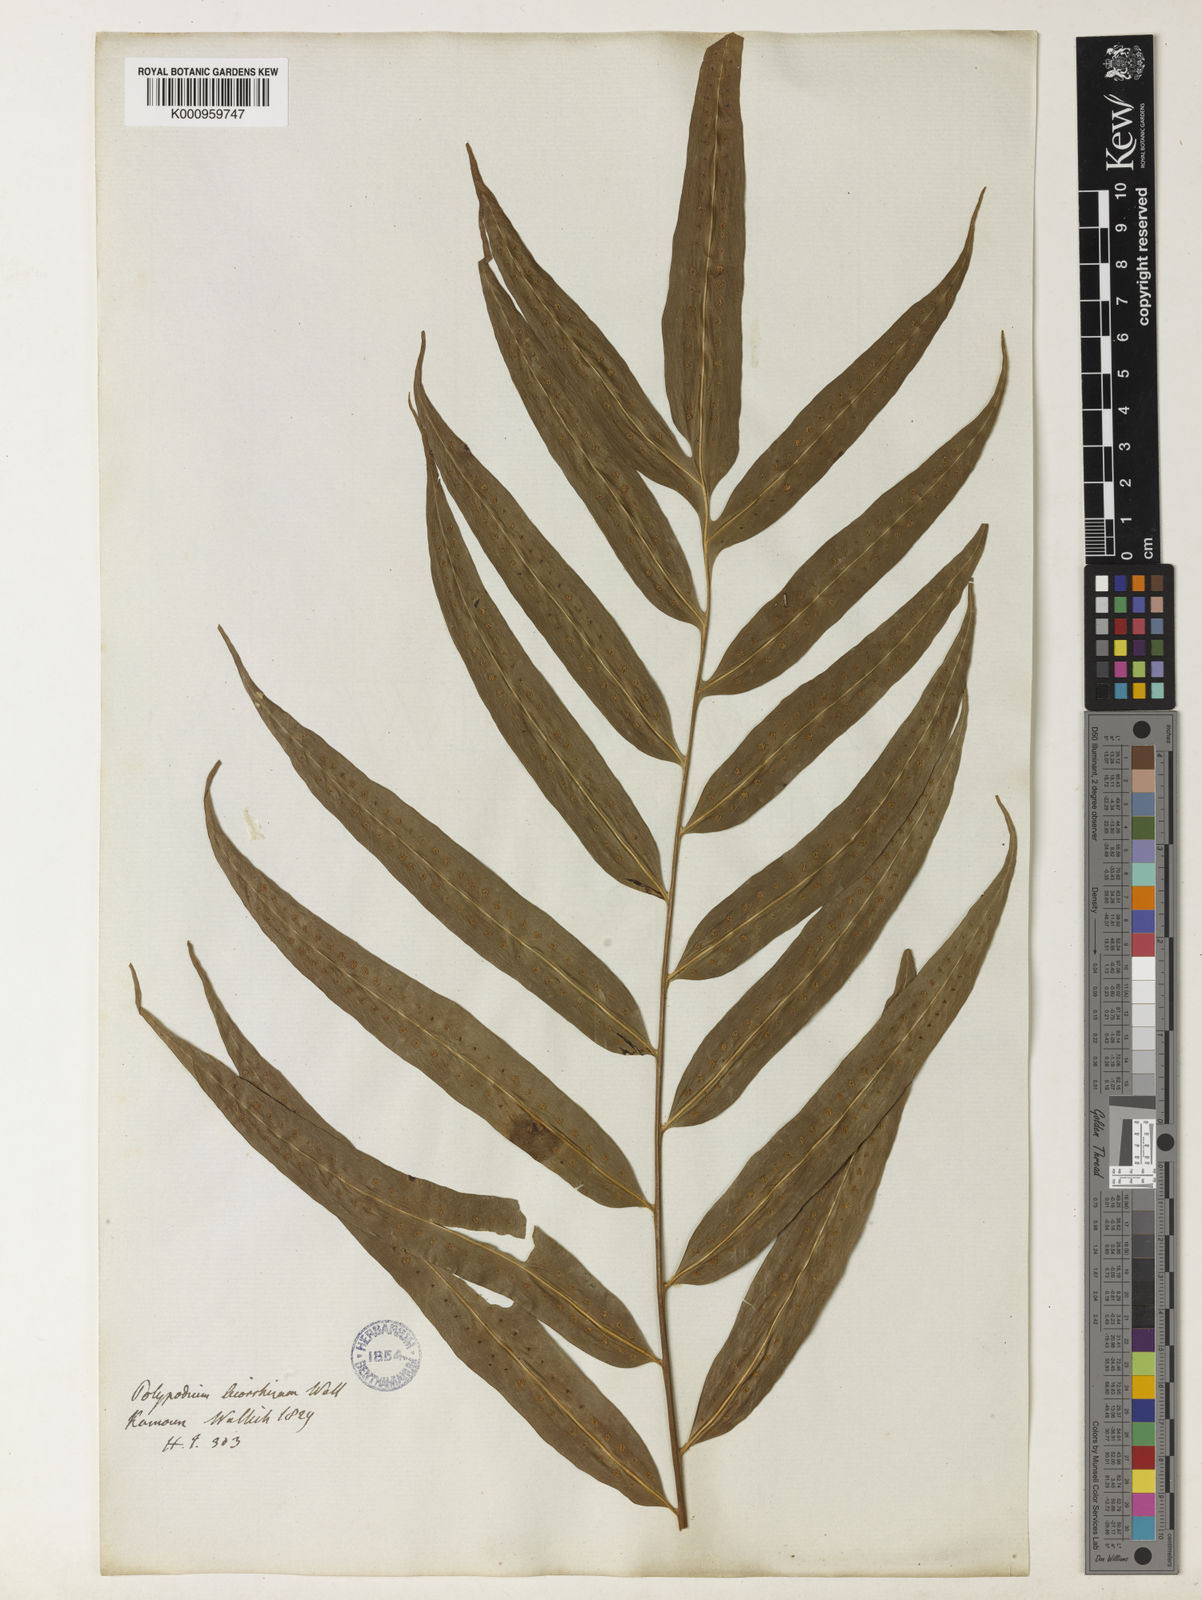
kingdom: Plantae
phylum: Tracheophyta
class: Polypodiopsida
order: Polypodiales
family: Polypodiaceae
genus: Microsorum
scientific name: Microsorum cuspidatum
